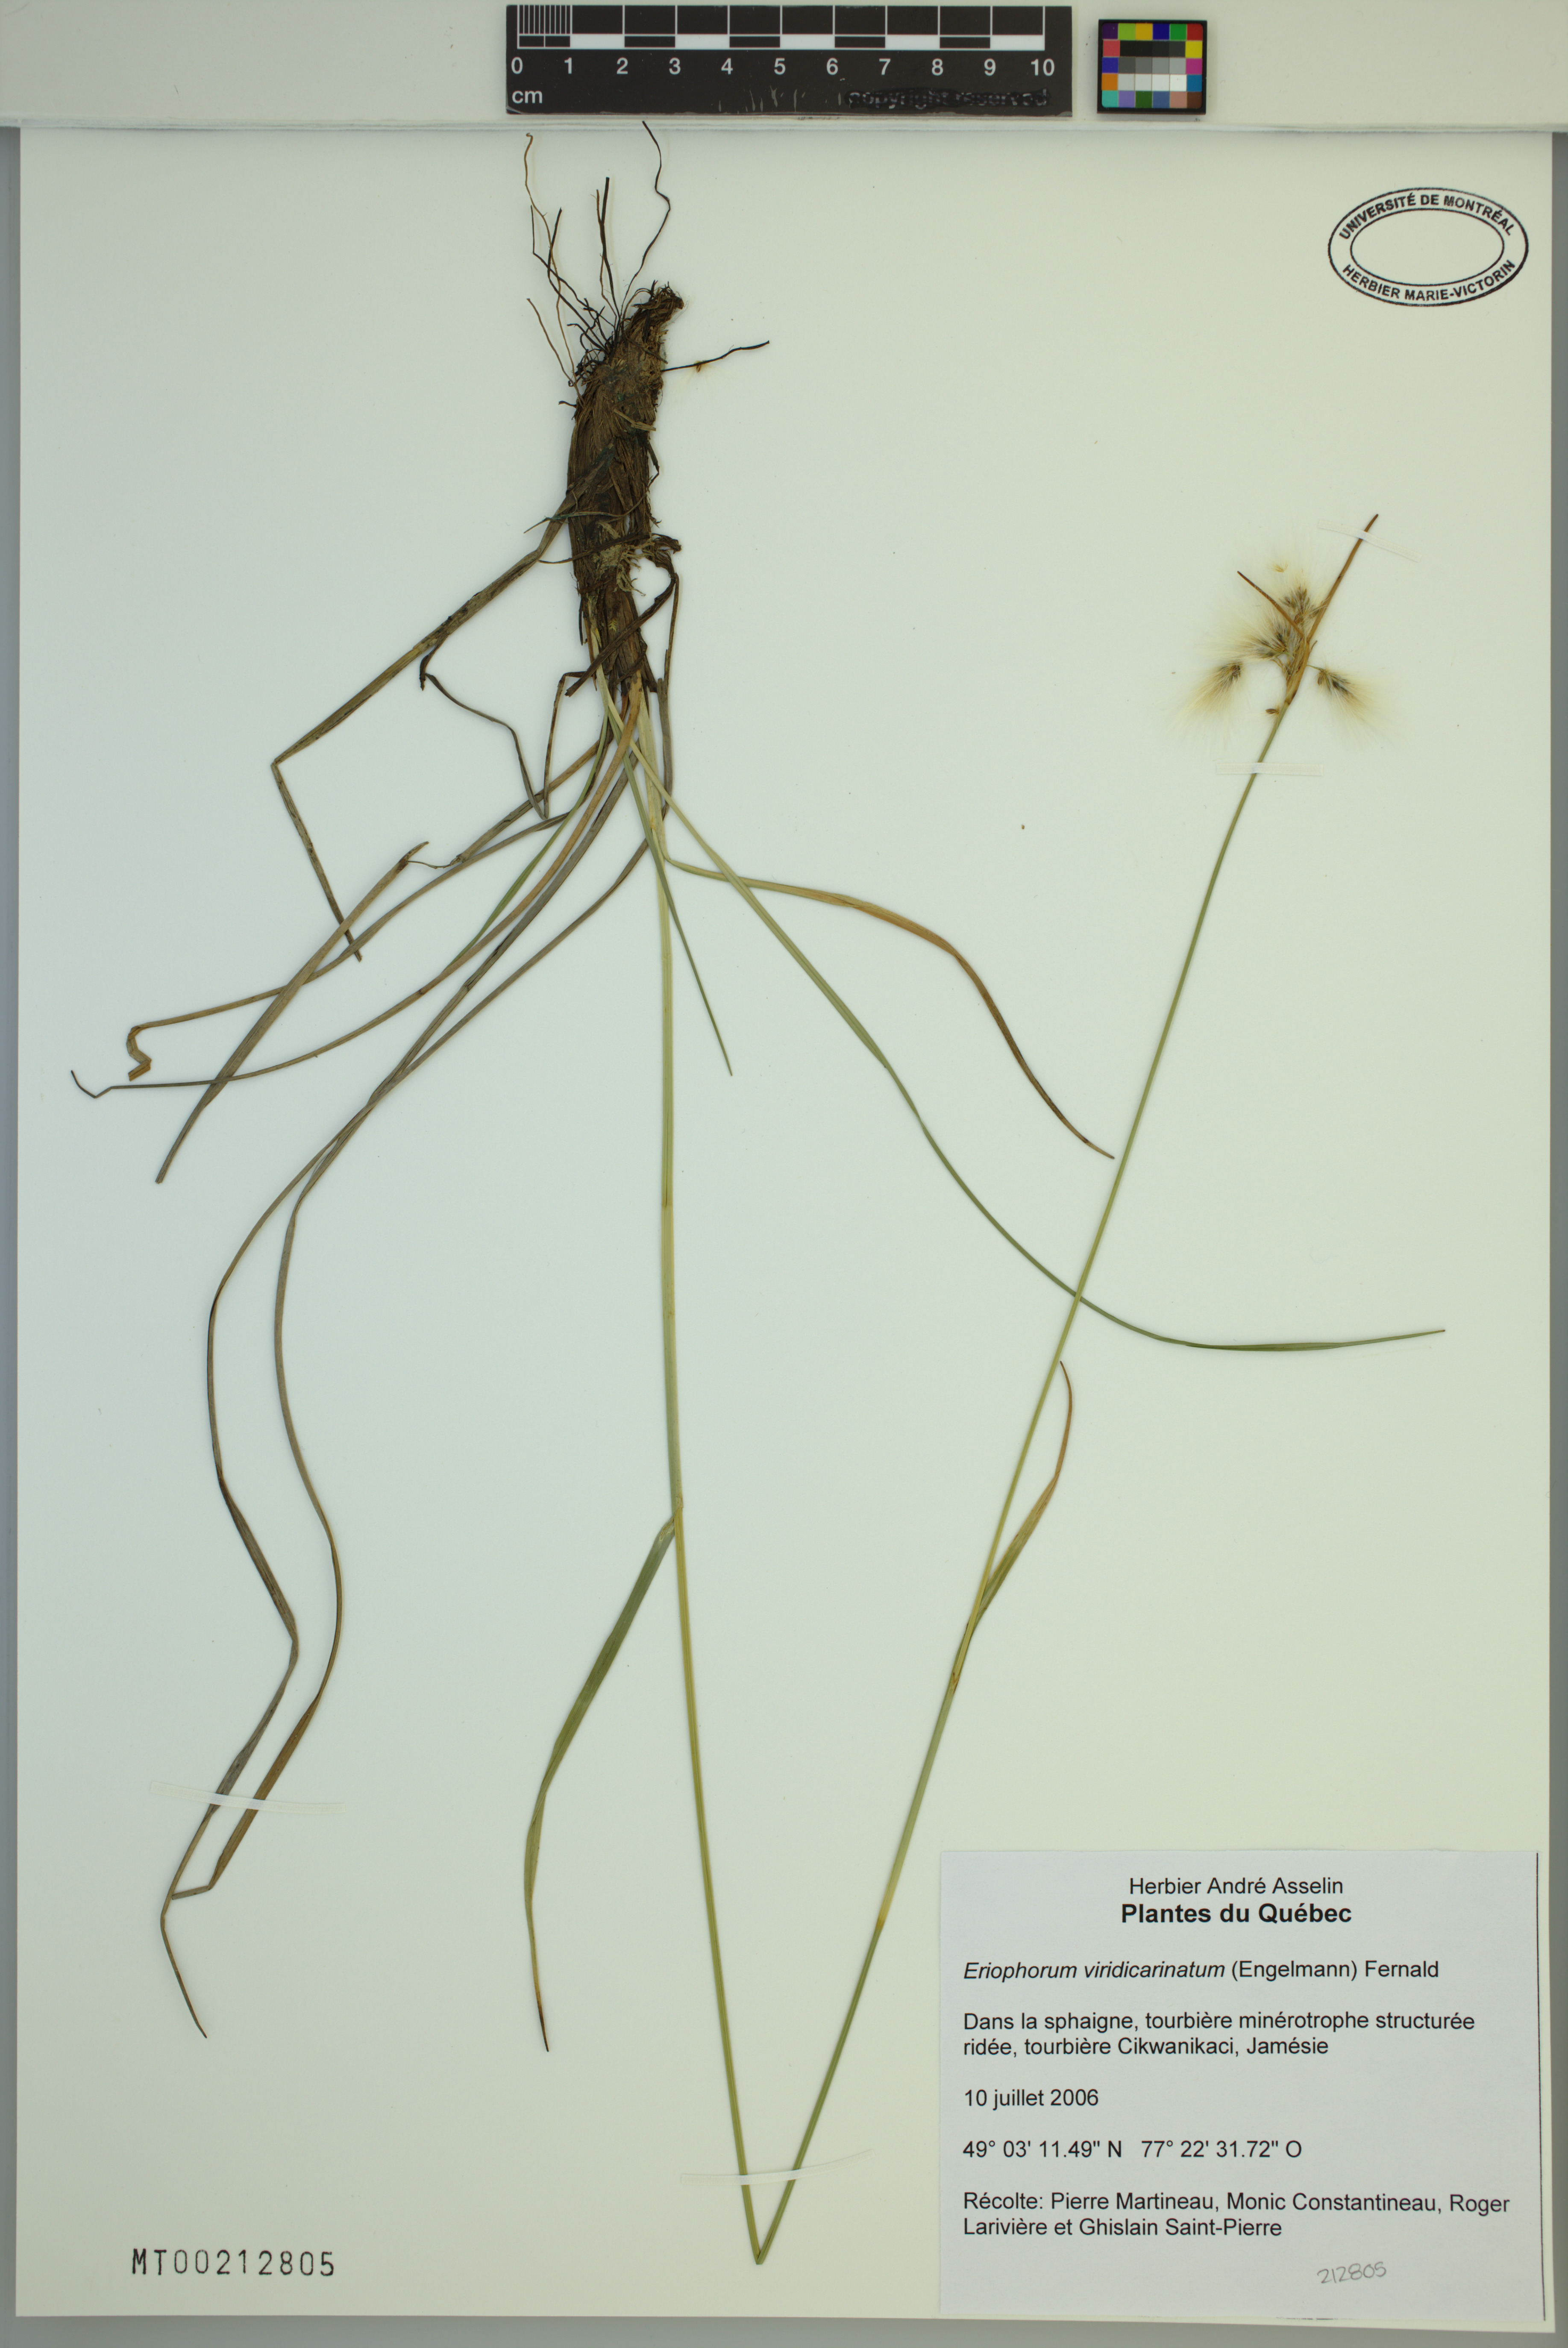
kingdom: Plantae
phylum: Tracheophyta
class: Liliopsida
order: Poales
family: Cyperaceae
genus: Eriophorum
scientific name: Eriophorum viridicarinatum
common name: Green-keeled cottongrass
